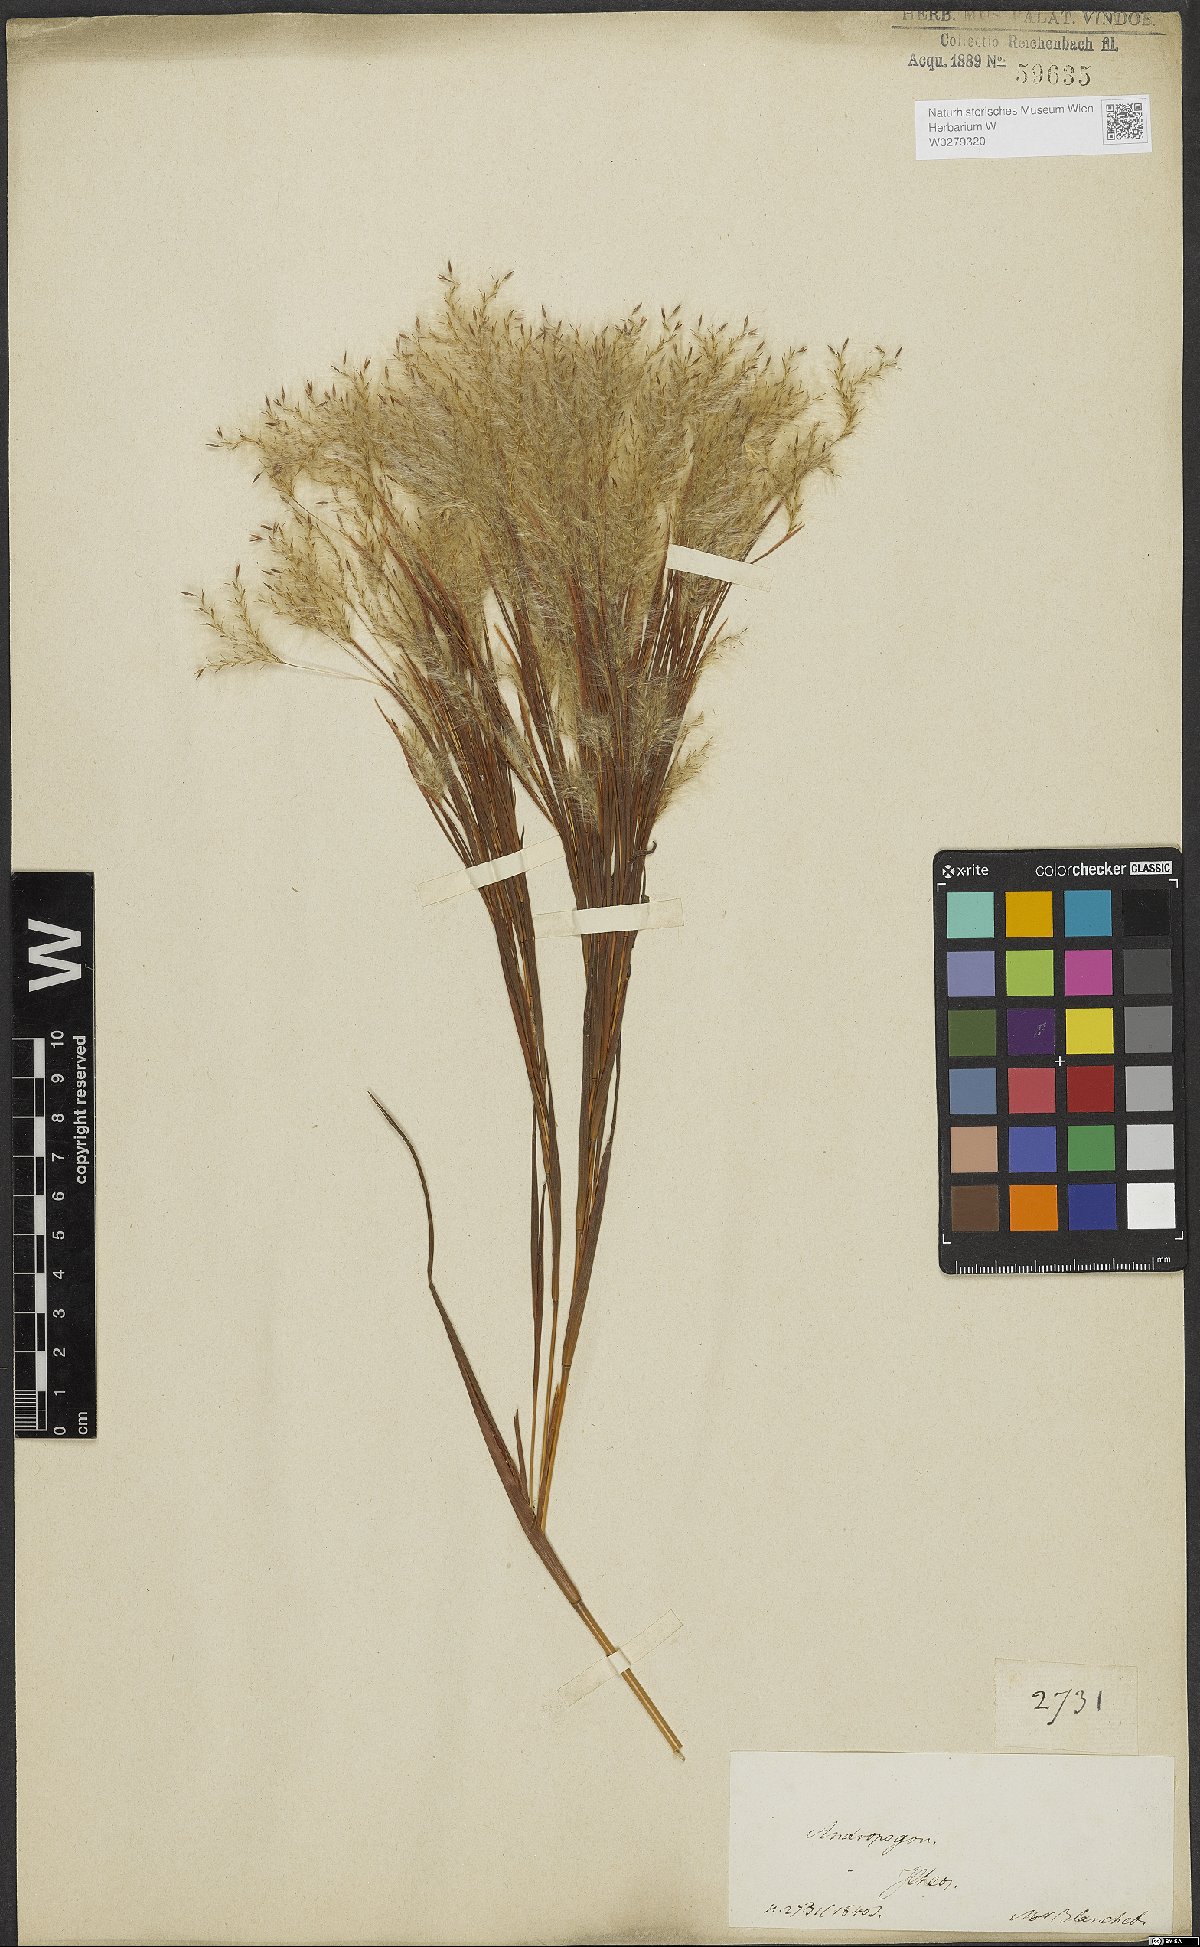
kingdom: Plantae
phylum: Tracheophyta
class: Liliopsida
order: Poales
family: Poaceae
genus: Andropogon
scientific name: Andropogon bicornis
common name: West indian foxtail grass
